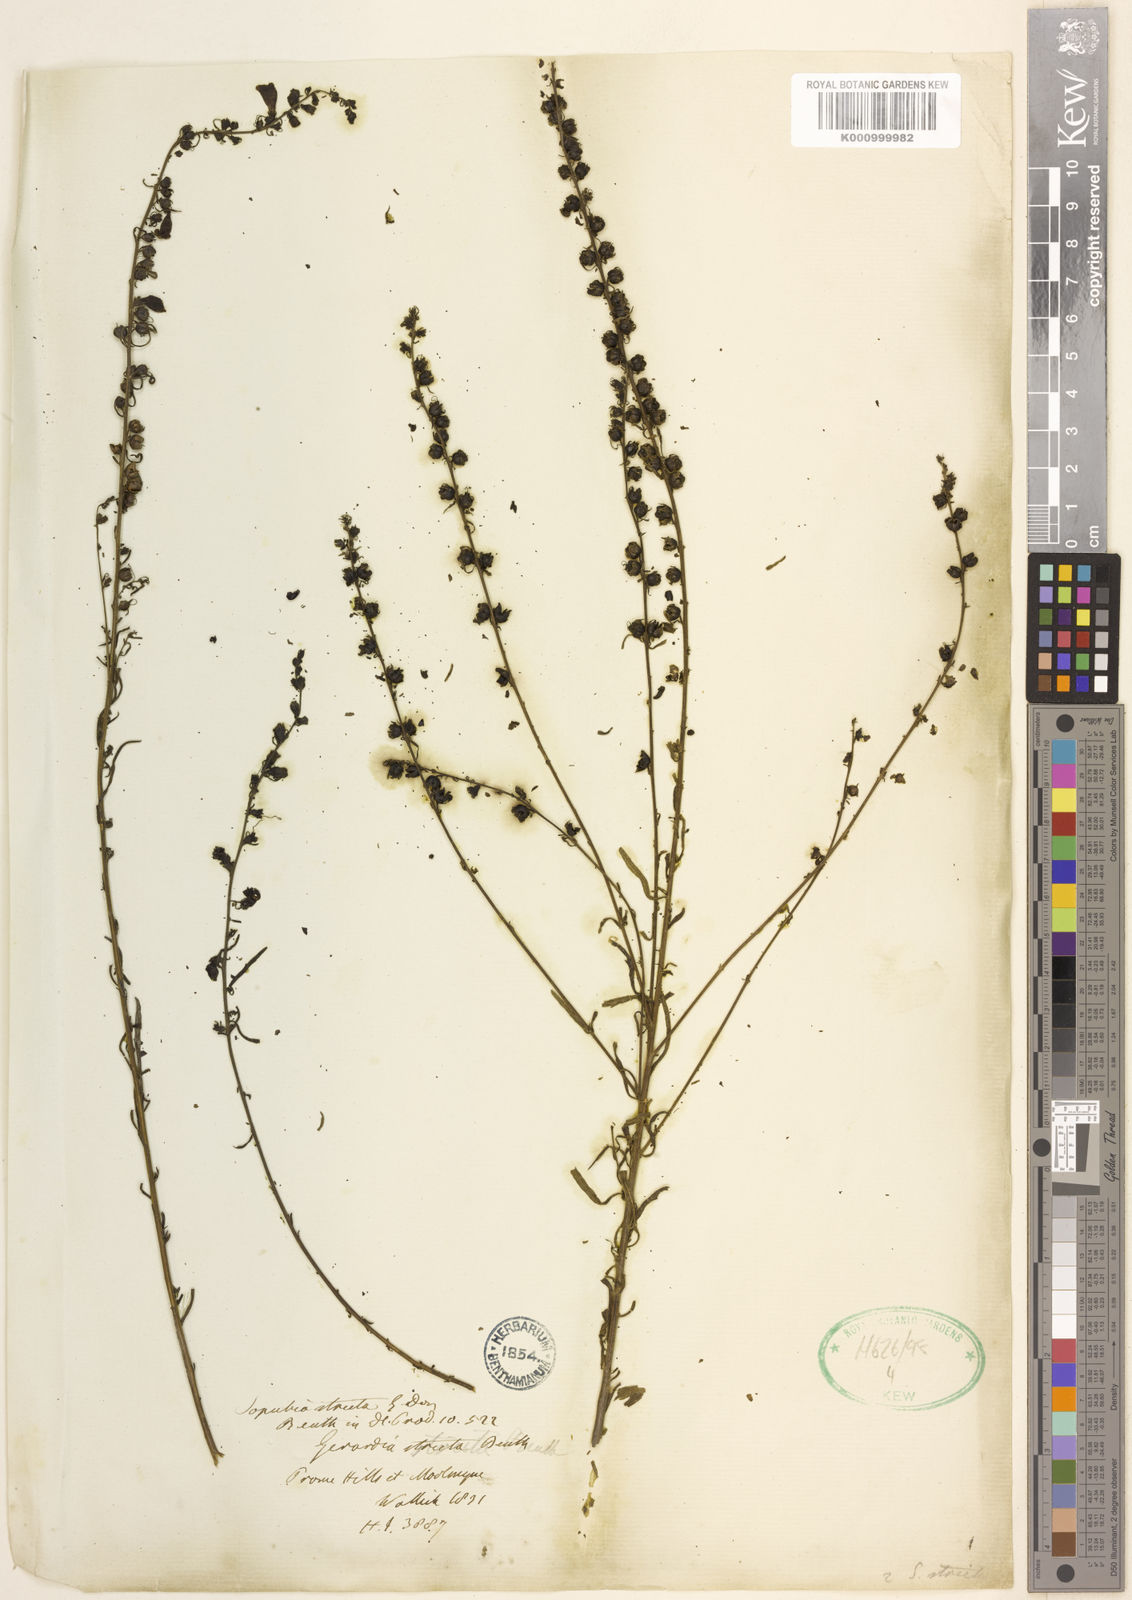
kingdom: Plantae
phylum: Tracheophyta
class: Magnoliopsida
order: Lamiales
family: Orobanchaceae
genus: Sopubia
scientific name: Sopubia stricta
